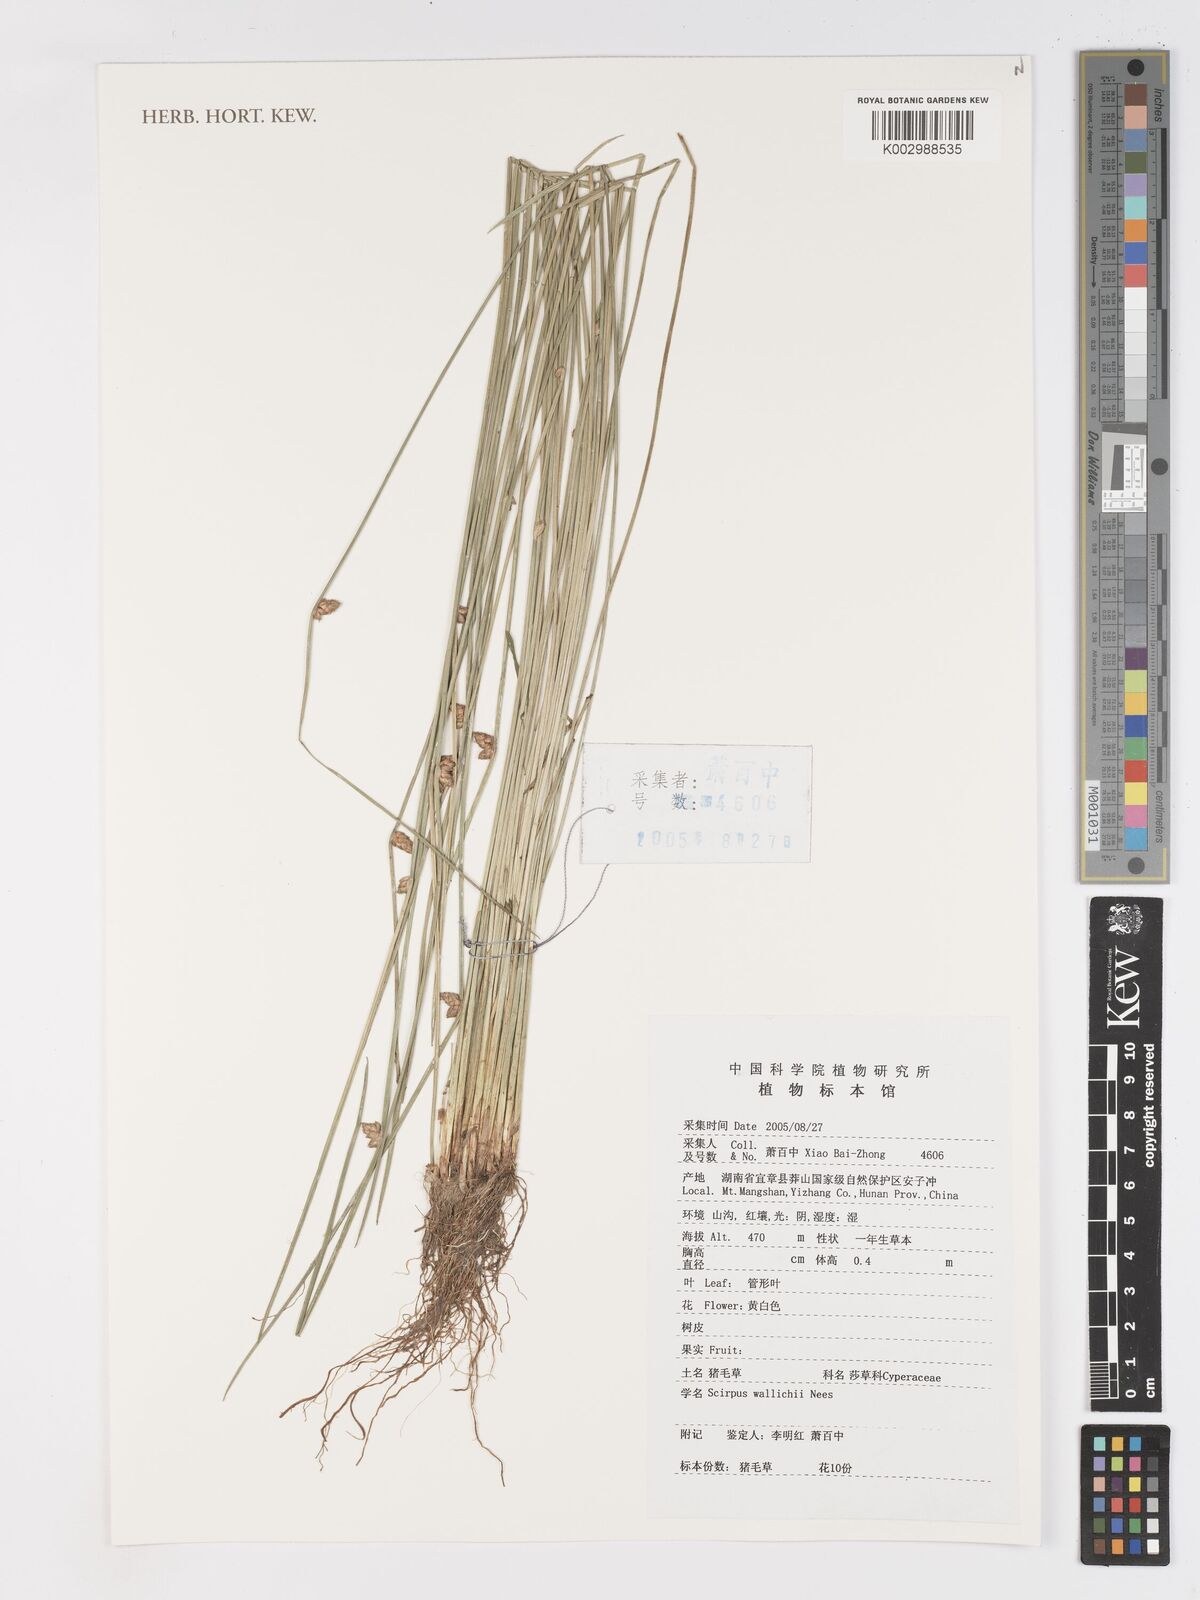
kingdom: Plantae
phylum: Tracheophyta
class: Liliopsida
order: Poales
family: Cyperaceae
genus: Schoenoplectiella
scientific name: Schoenoplectiella wallichii
